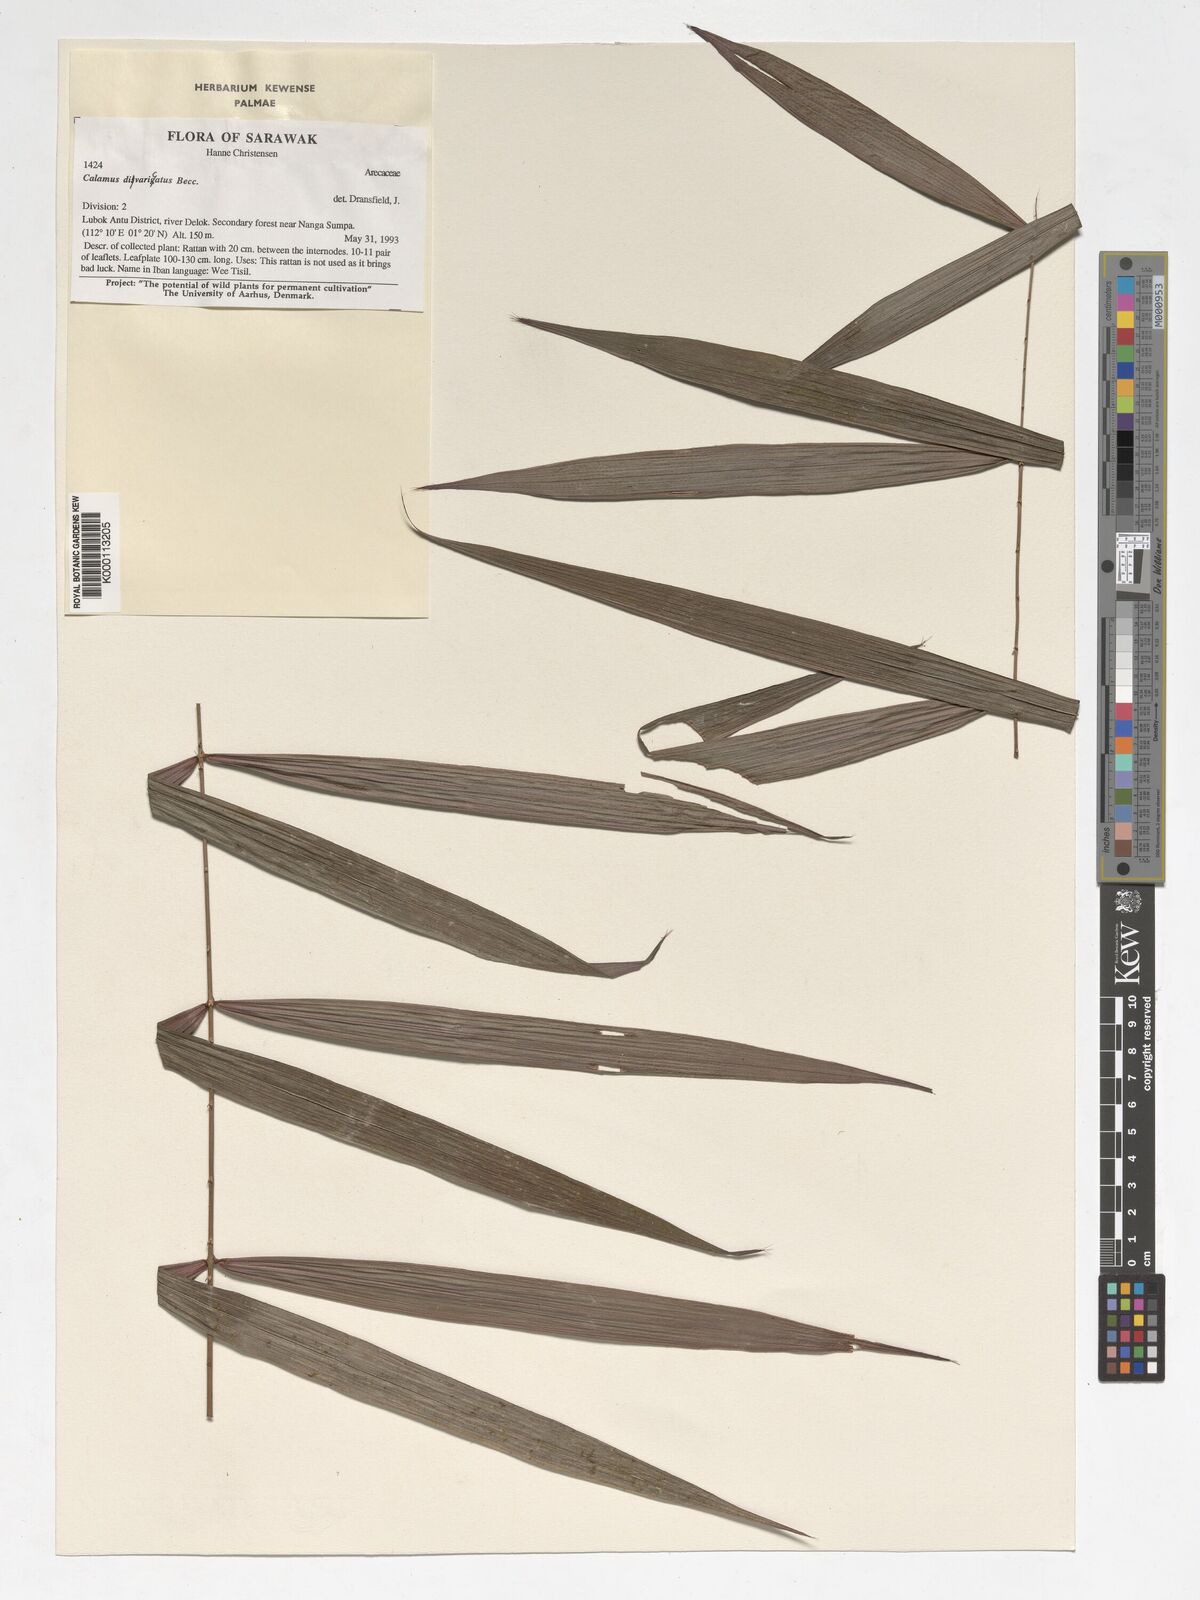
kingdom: Plantae
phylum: Tracheophyta
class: Liliopsida
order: Arecales
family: Arecaceae
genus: Calamus
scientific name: Calamus divaricatus
